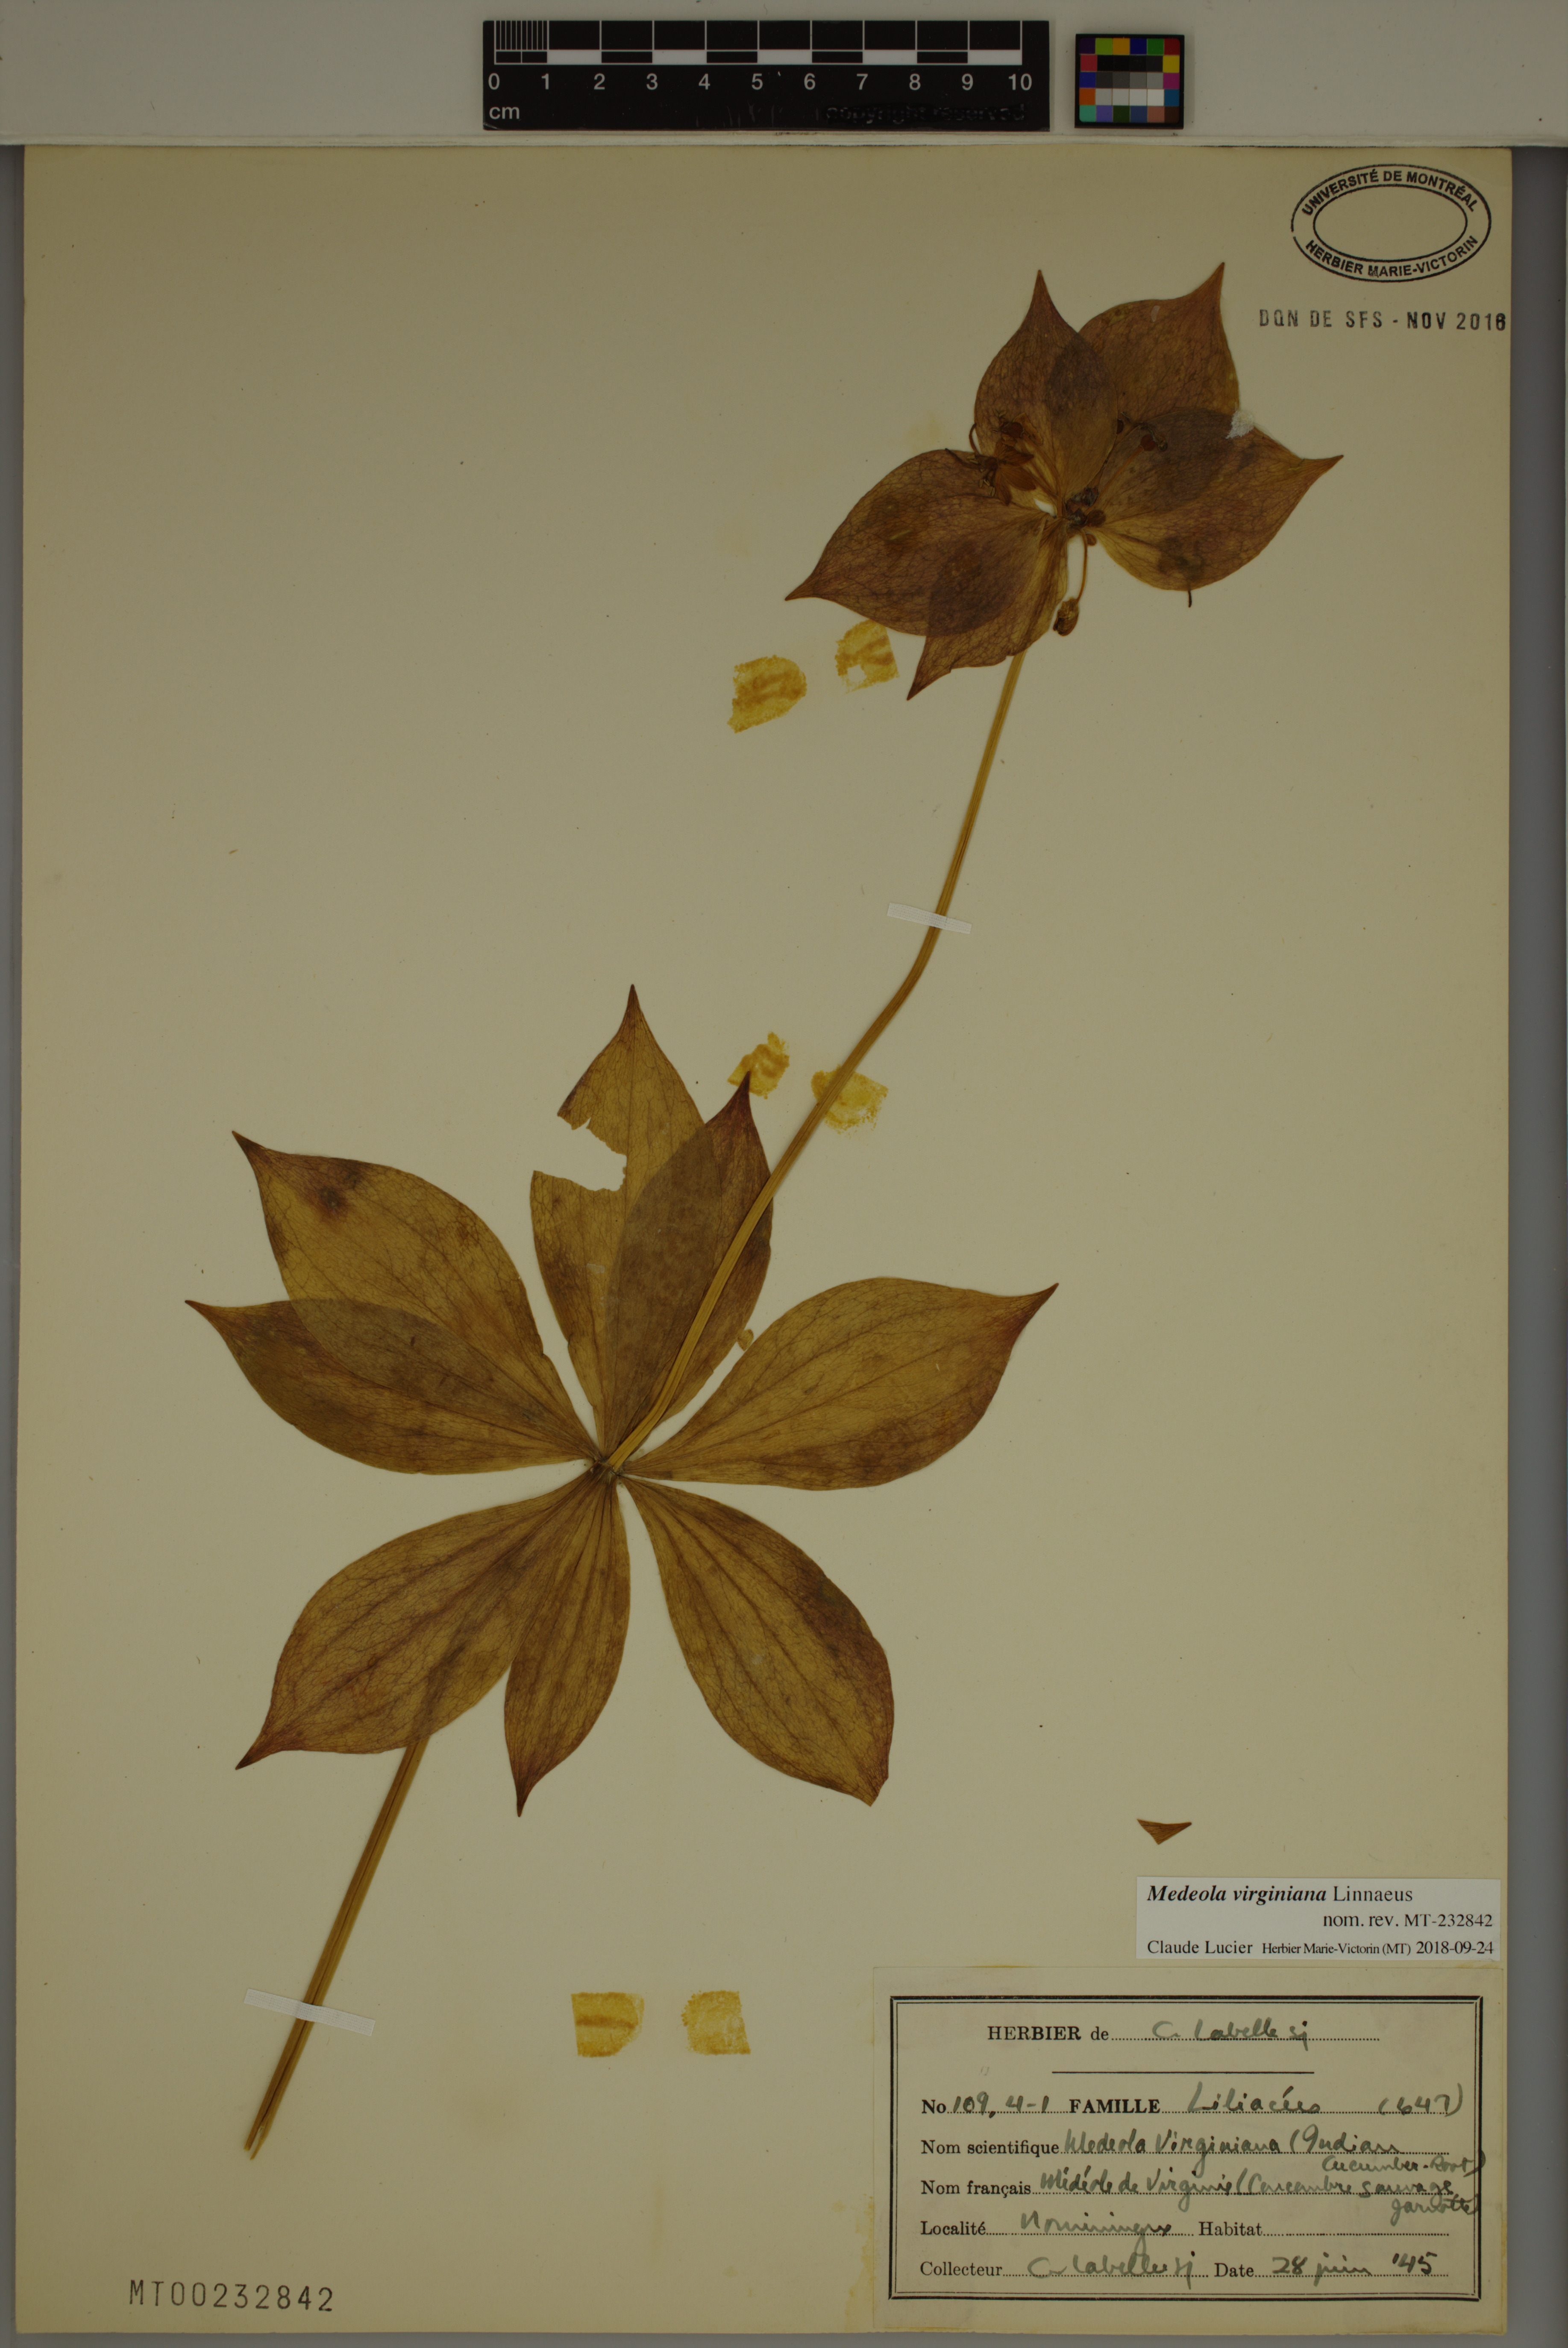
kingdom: Plantae
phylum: Tracheophyta
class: Liliopsida
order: Liliales
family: Liliaceae
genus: Medeola
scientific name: Medeola virginiana
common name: Indian cucumber-root
